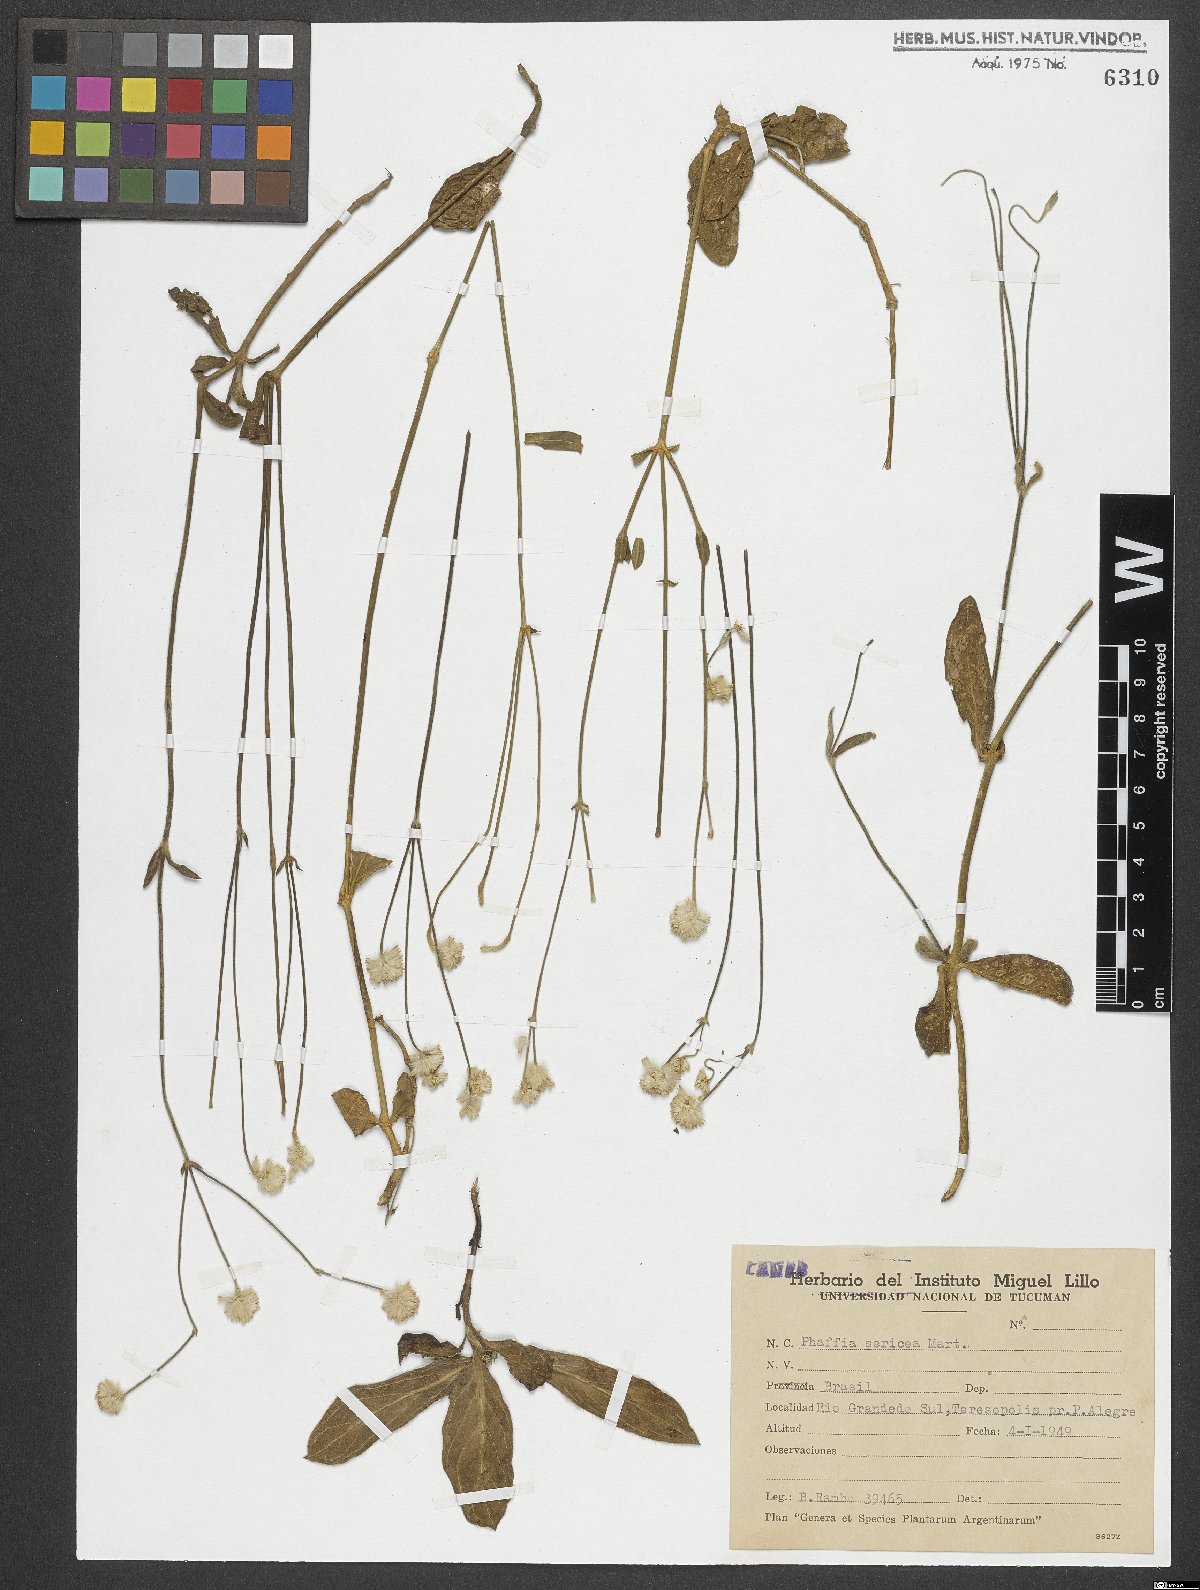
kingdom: Plantae
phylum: Tracheophyta
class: Magnoliopsida
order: Caryophyllales
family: Amaranthaceae
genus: Pfaffia
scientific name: Pfaffia tuberosa
